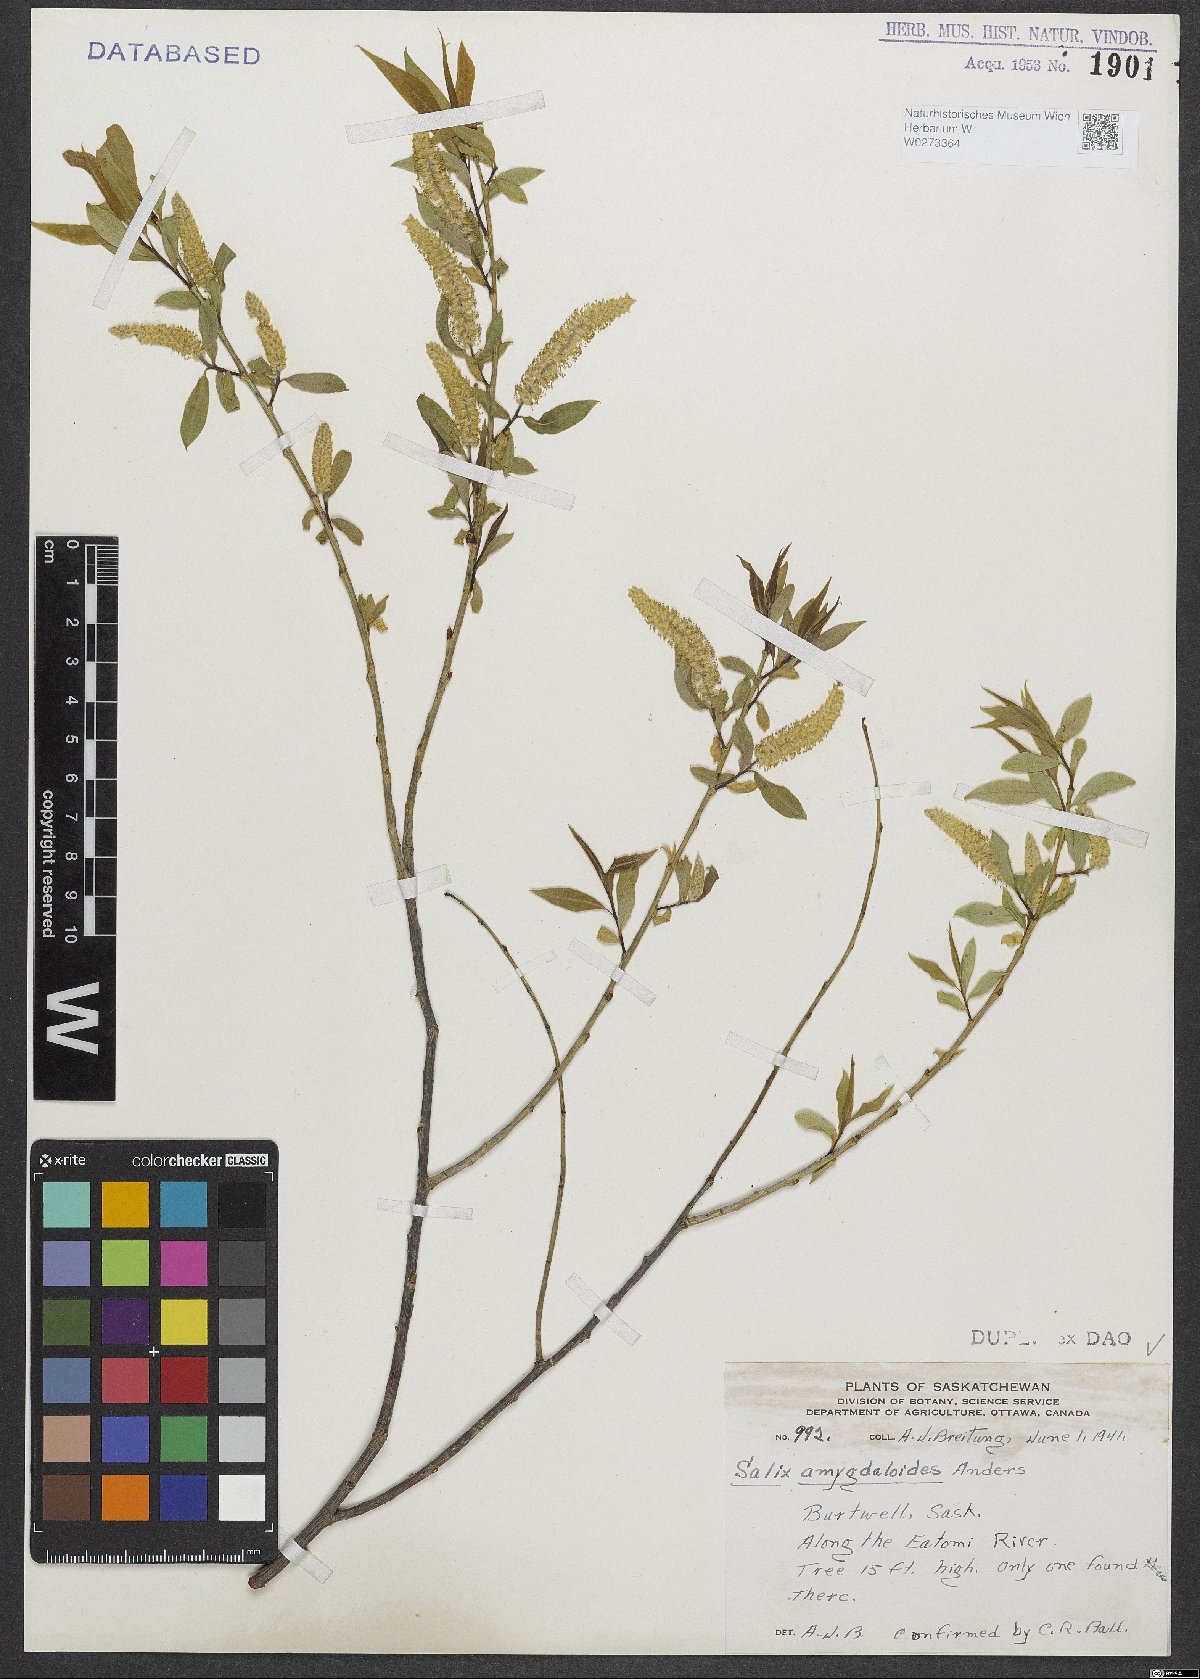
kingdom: Plantae
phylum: Tracheophyta
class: Magnoliopsida
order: Malpighiales
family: Salicaceae
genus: Salix
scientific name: Salix amygdaloides
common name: Peach leaf willow
